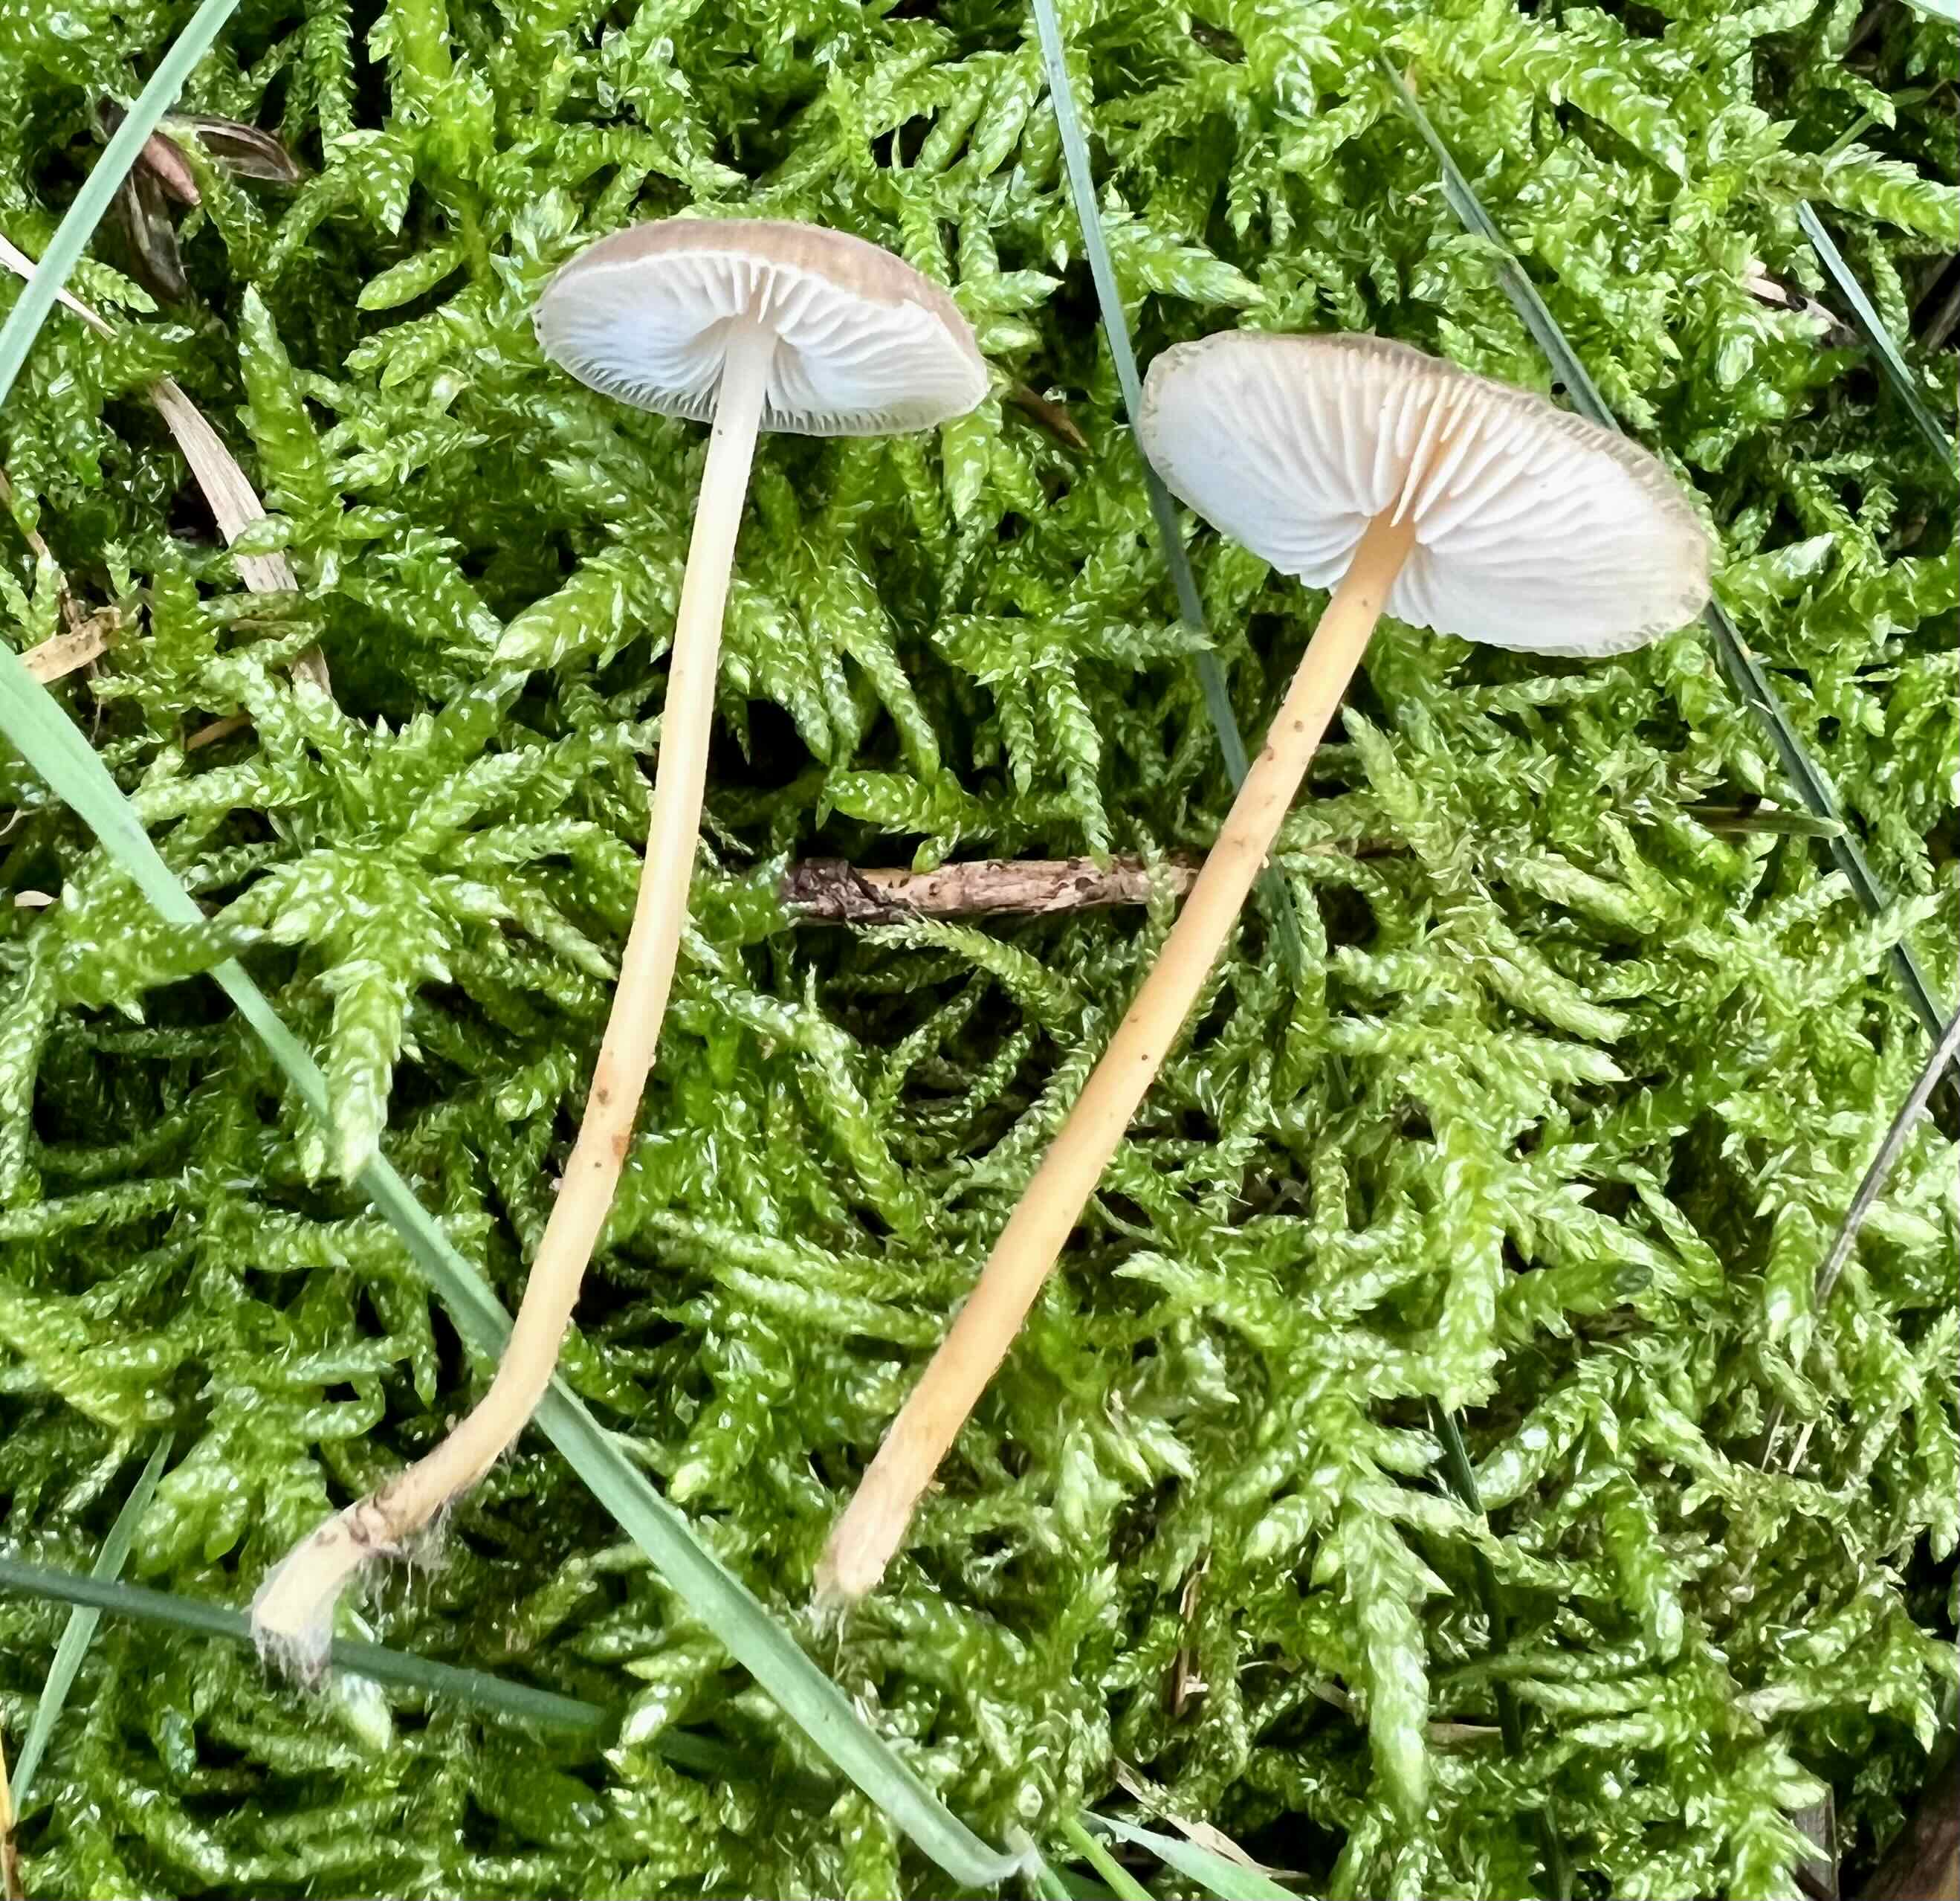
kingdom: Fungi
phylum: Basidiomycota
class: Agaricomycetes
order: Agaricales
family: Physalacriaceae
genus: Strobilurus
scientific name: Strobilurus esculentus
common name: gran-koglehat
